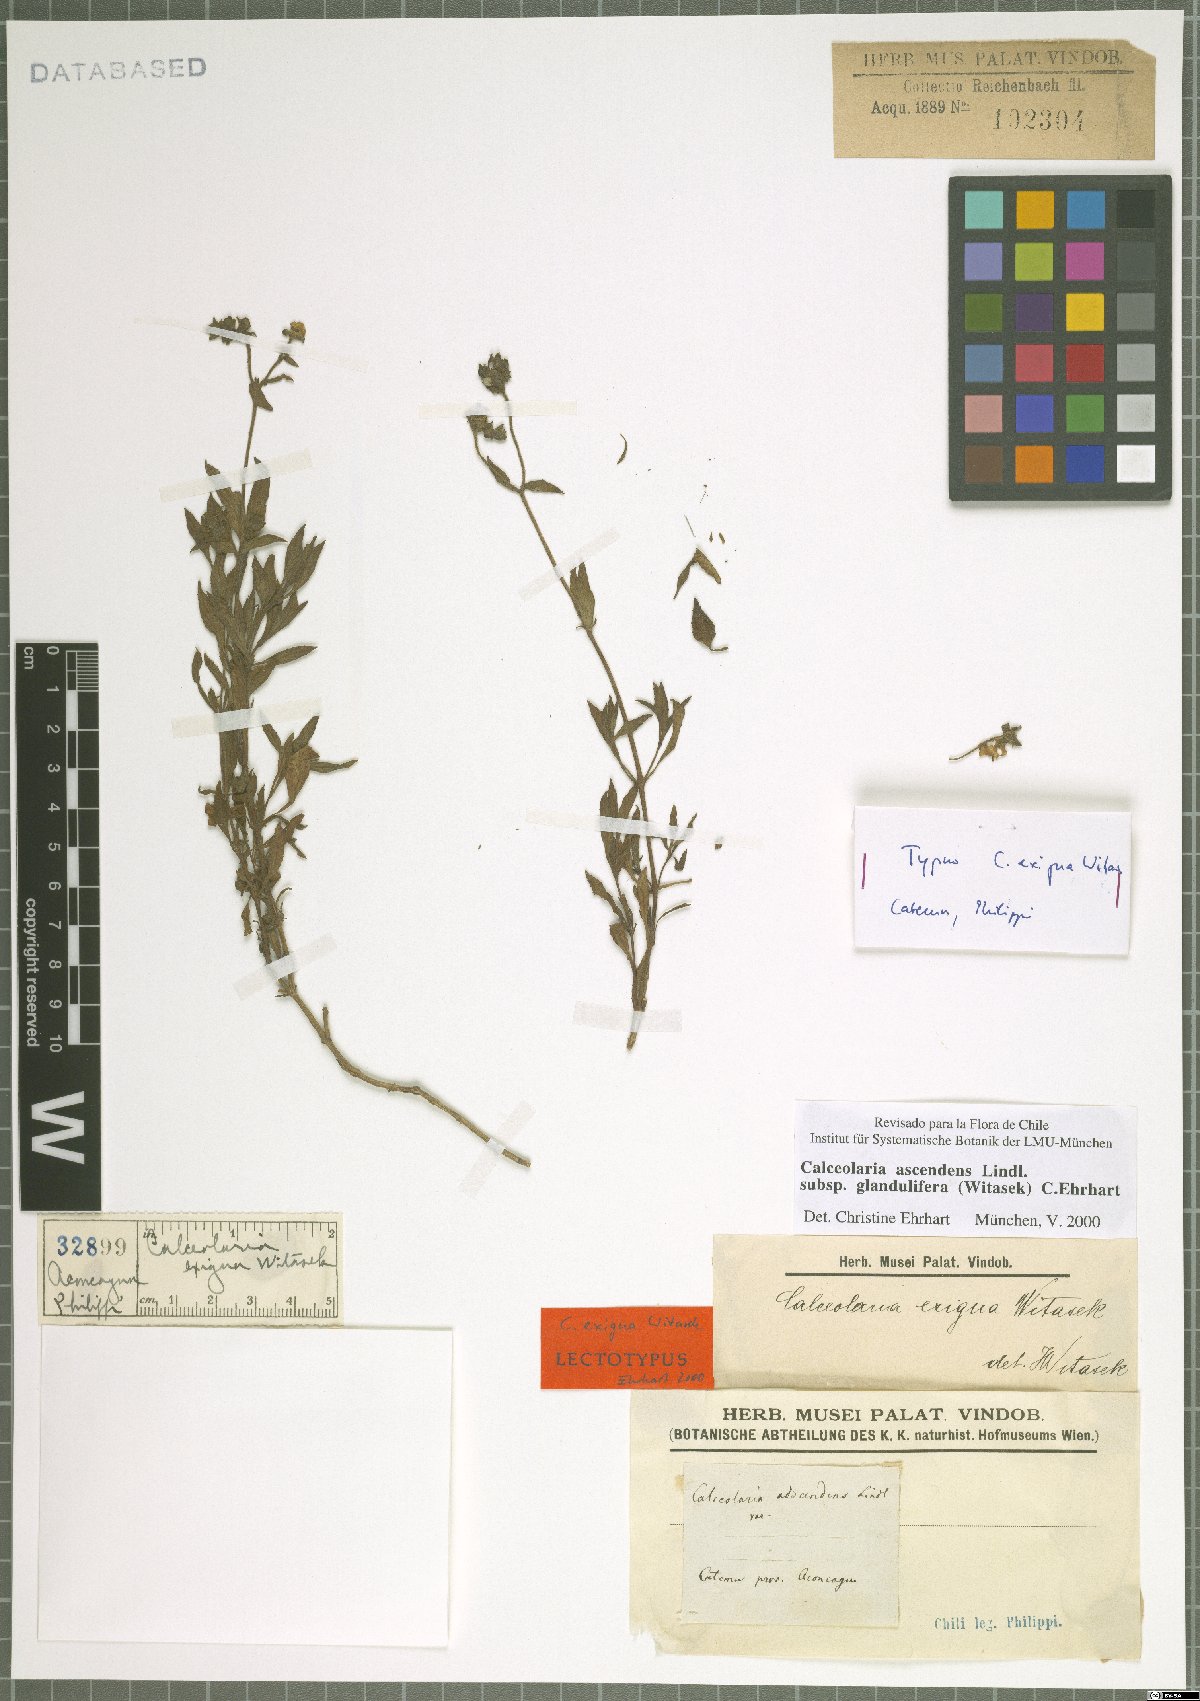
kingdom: Plantae
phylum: Tracheophyta
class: Magnoliopsida
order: Lamiales
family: Calceolariaceae
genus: Calceolaria
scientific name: Calceolaria ascendens
